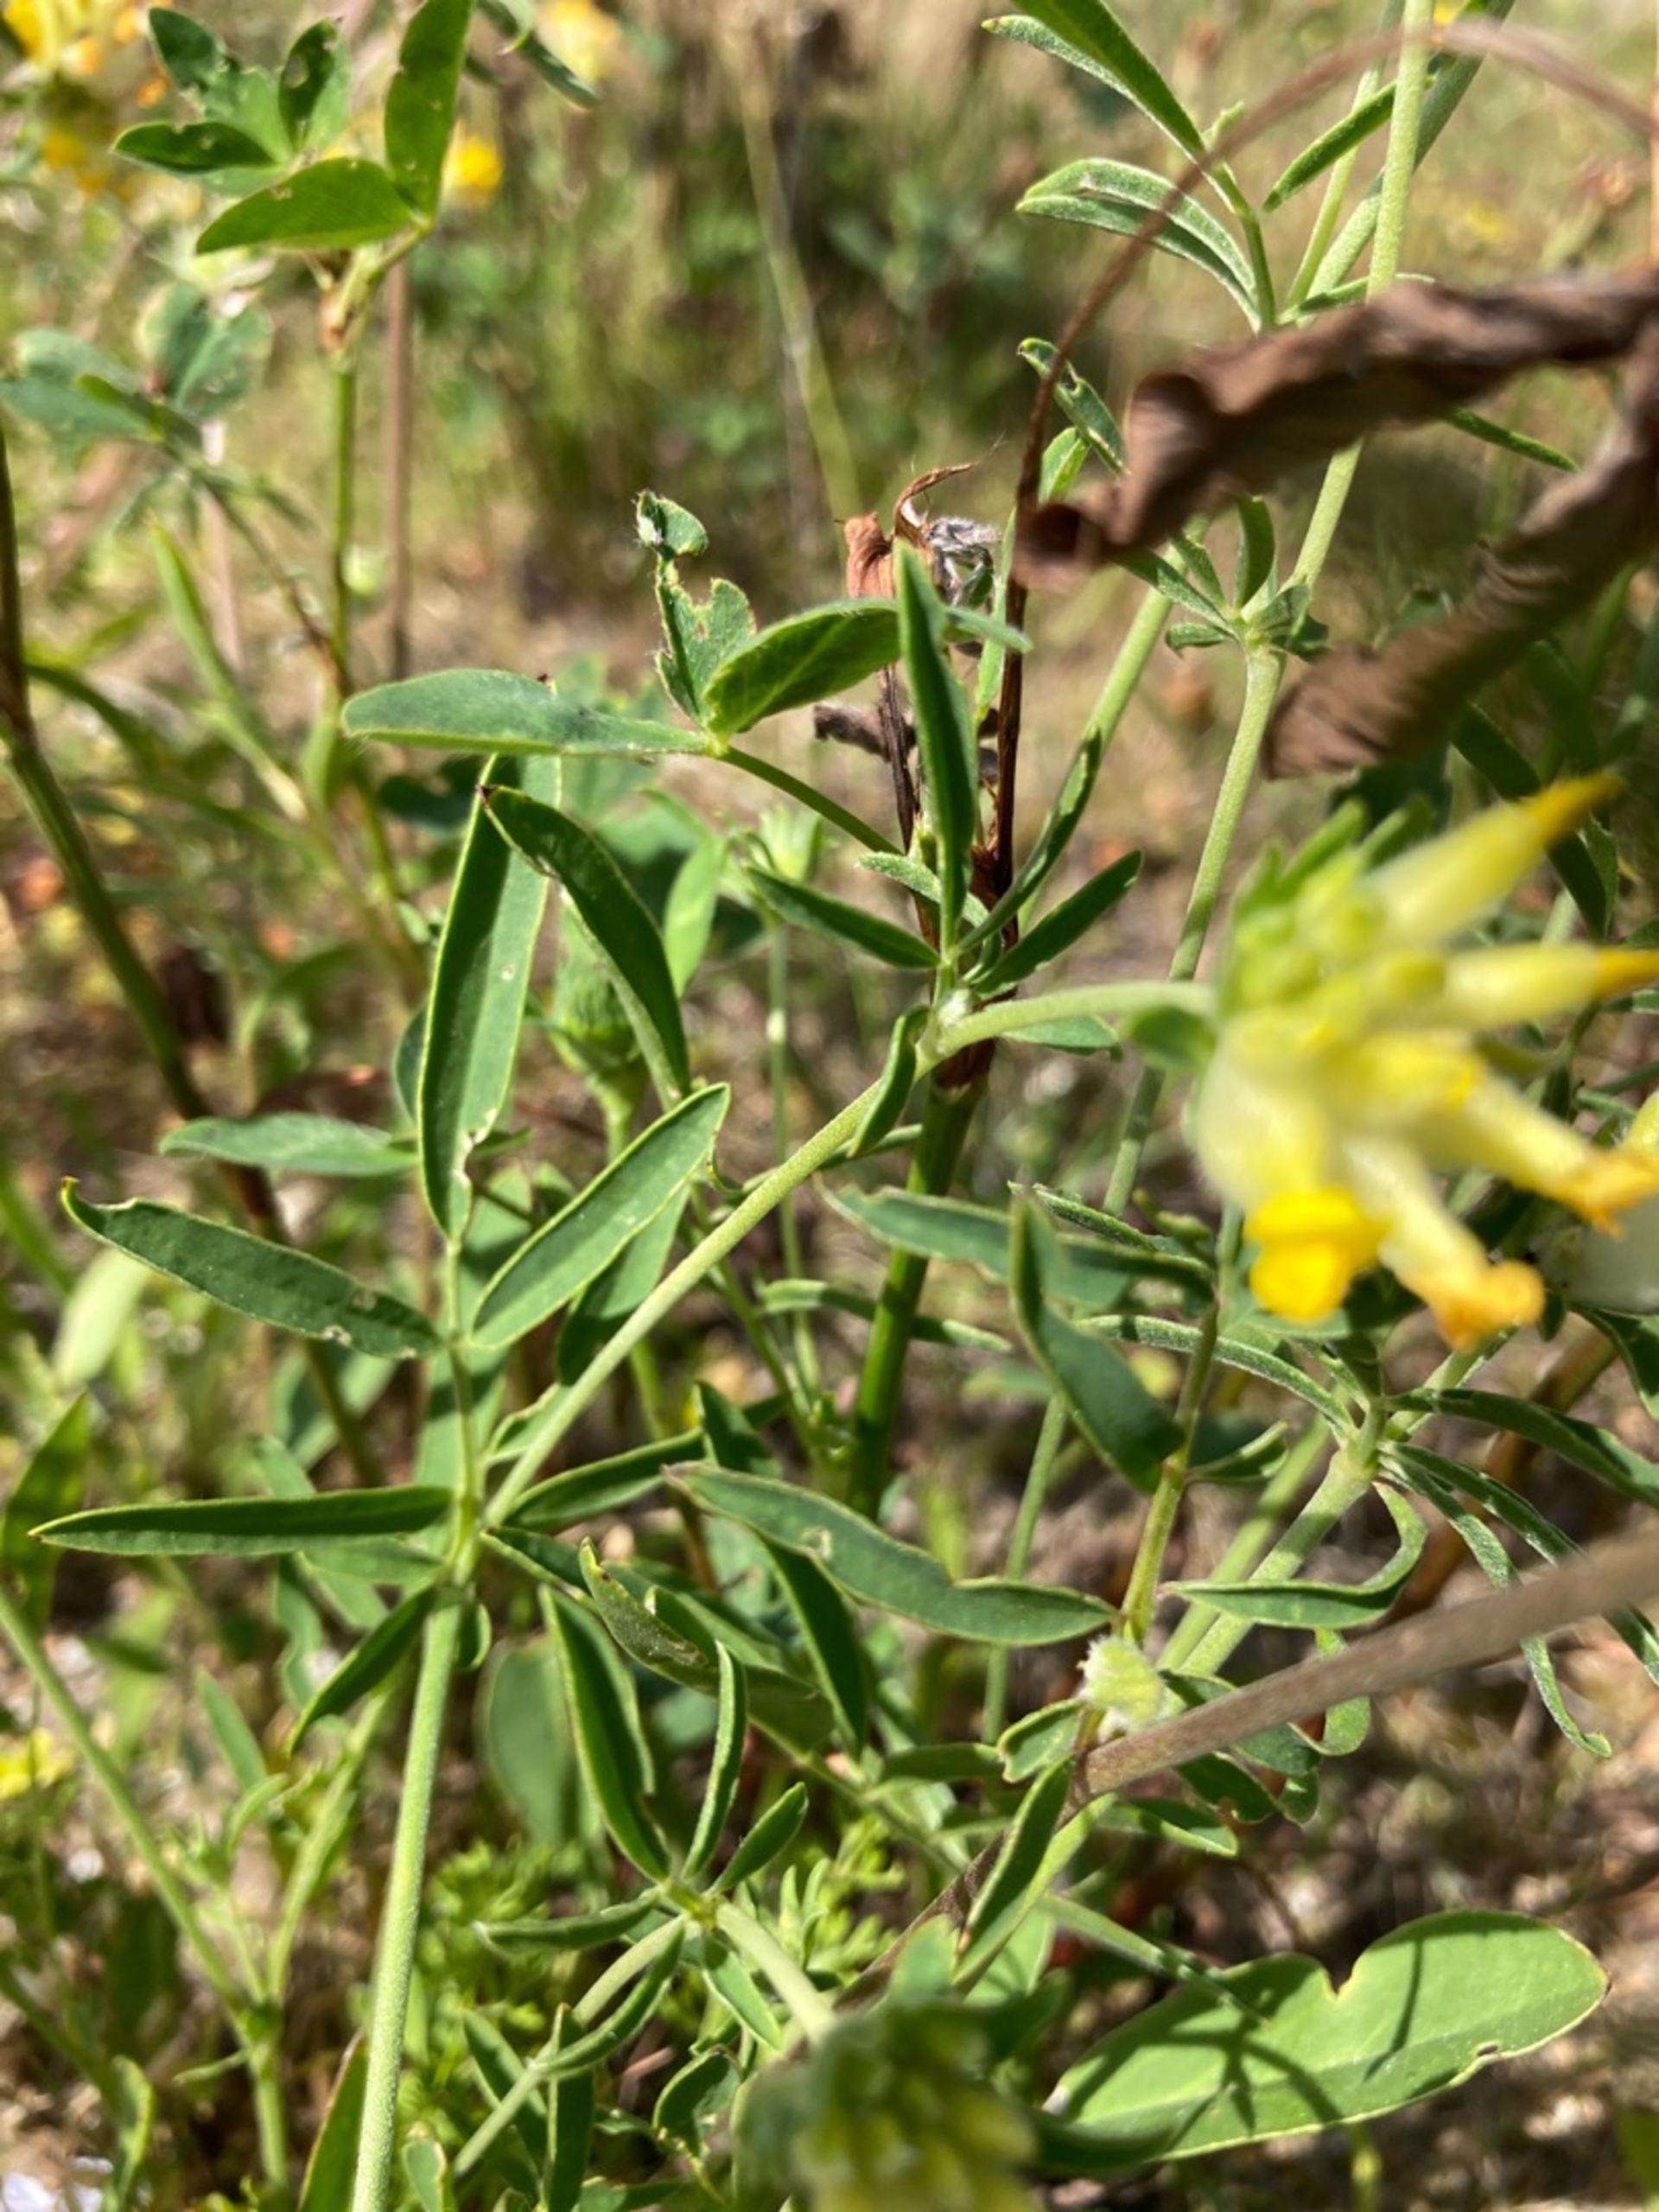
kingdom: Plantae
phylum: Tracheophyta
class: Magnoliopsida
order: Fabales
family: Fabaceae
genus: Anthyllis
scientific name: Anthyllis vulneraria
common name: Rundbælg
